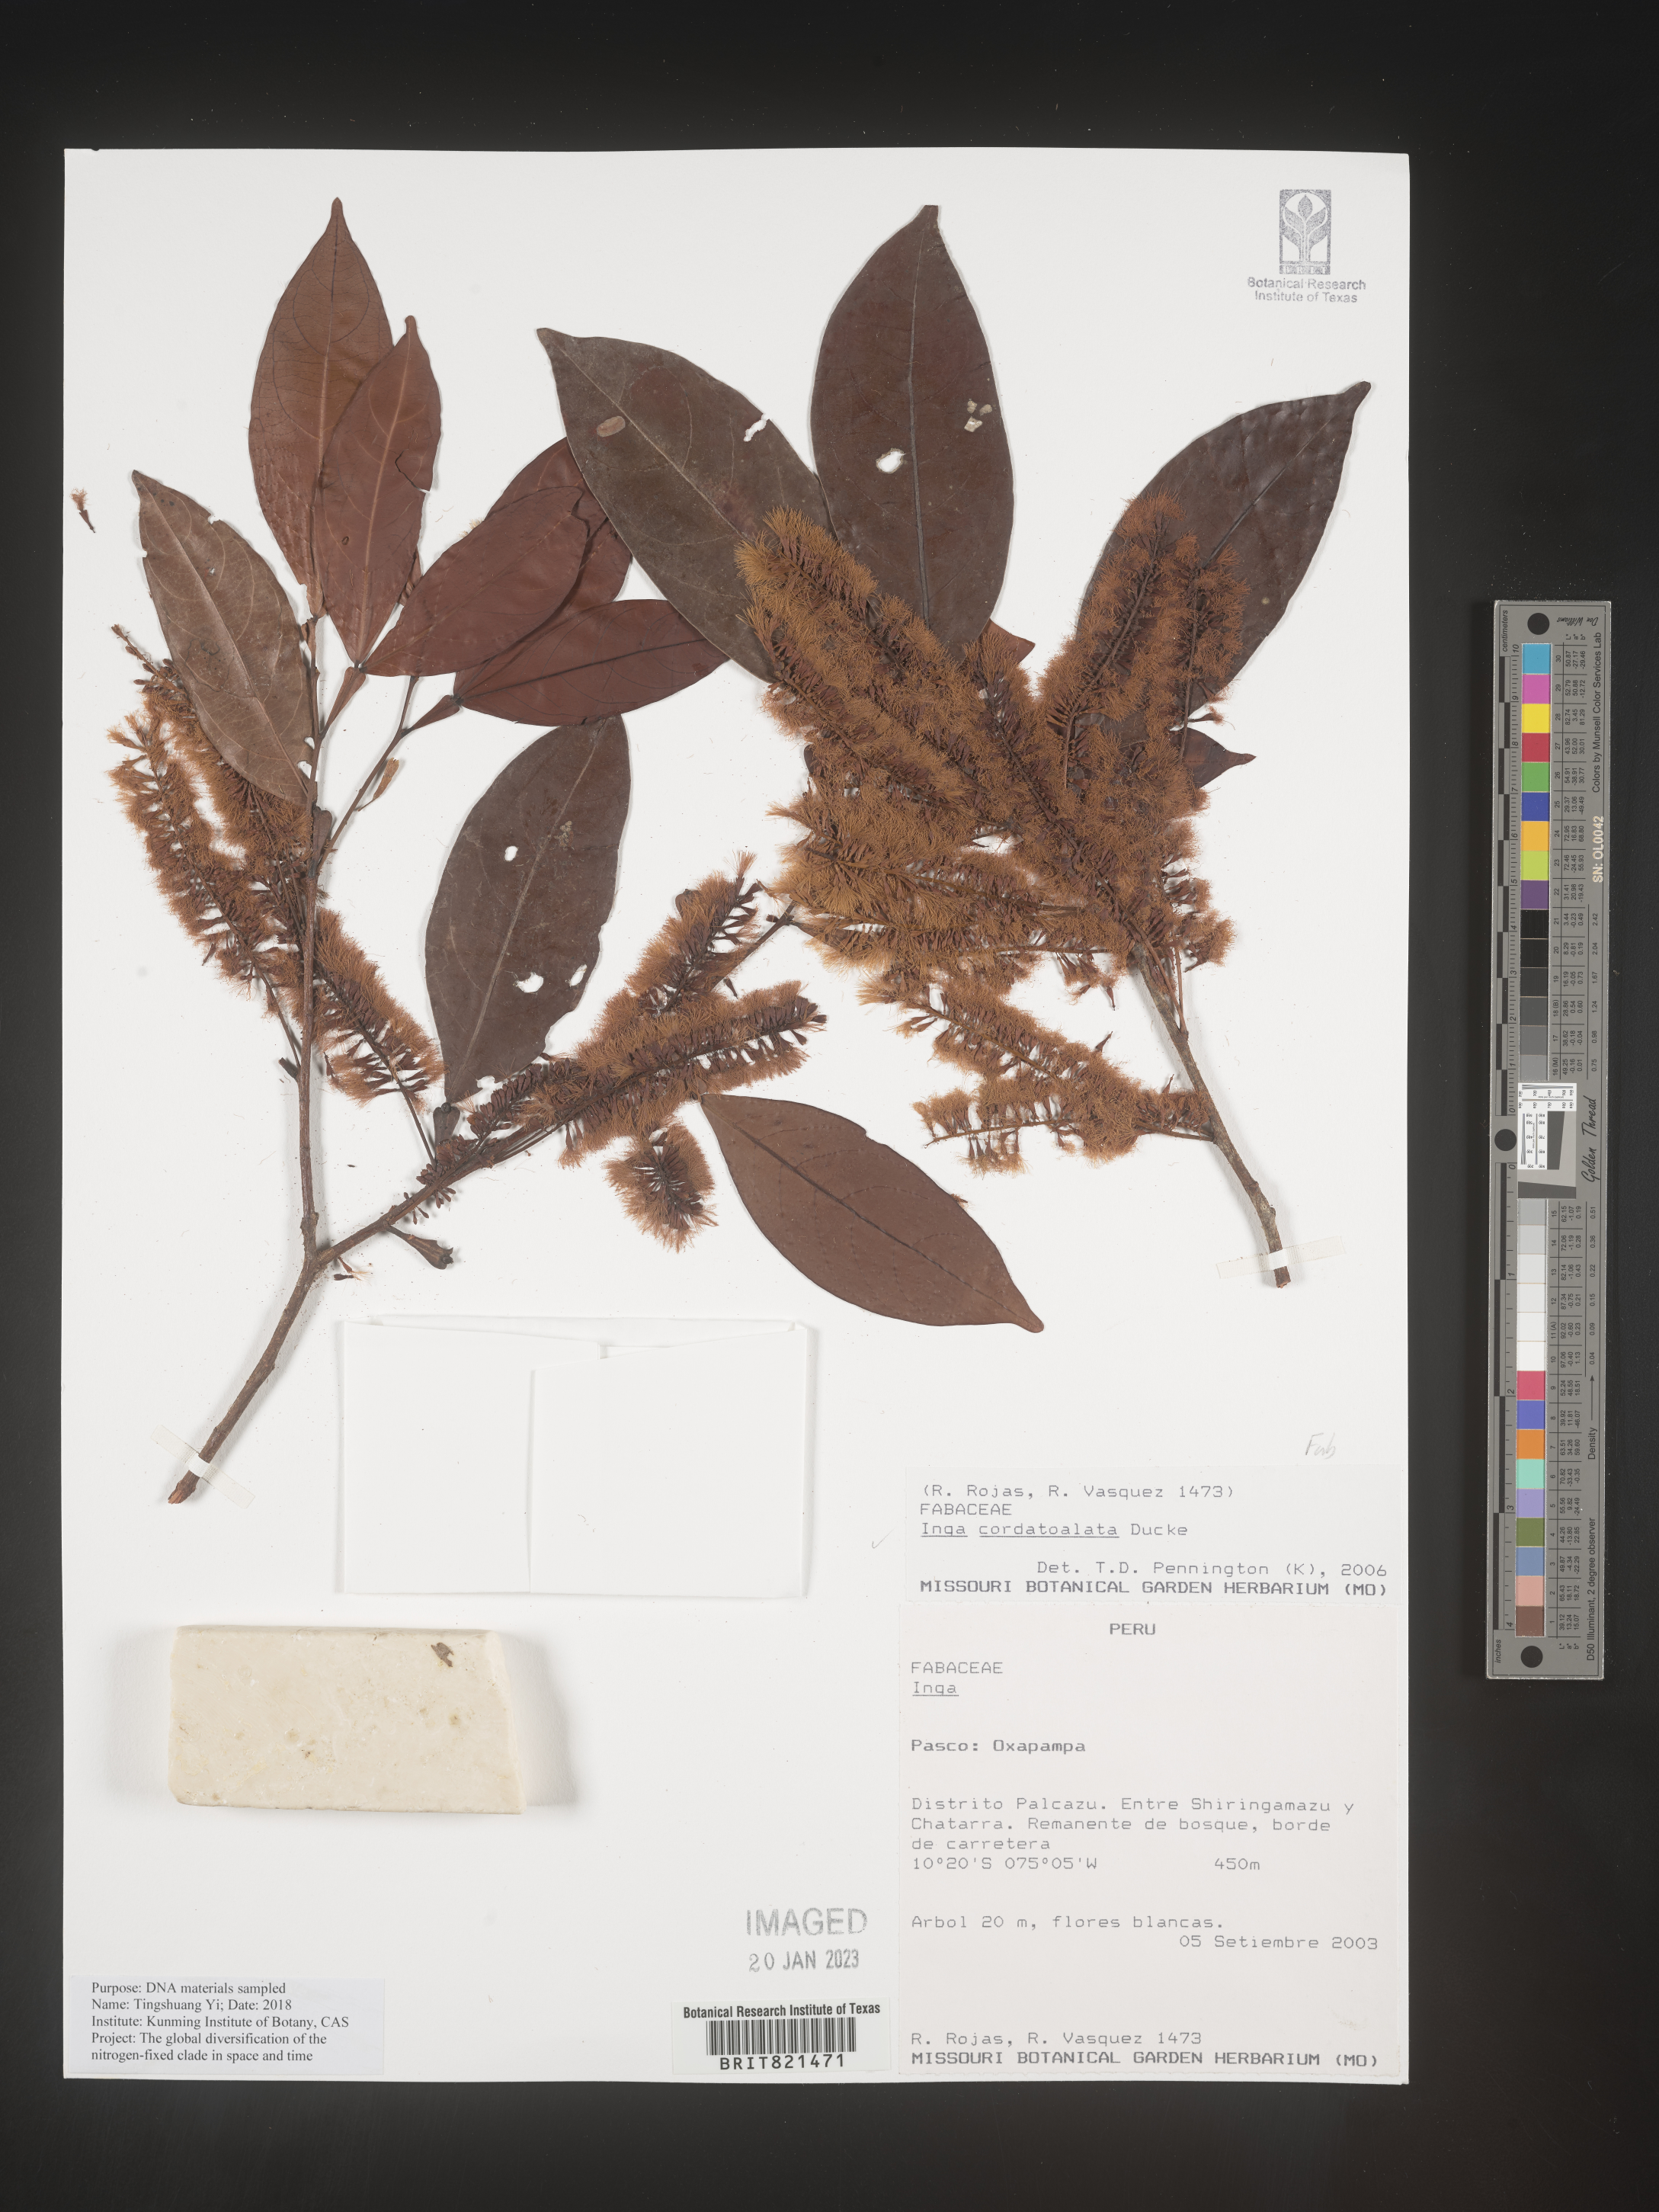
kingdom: Plantae
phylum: Tracheophyta
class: Magnoliopsida
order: Fabales
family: Fabaceae
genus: Inga
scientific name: Inga
